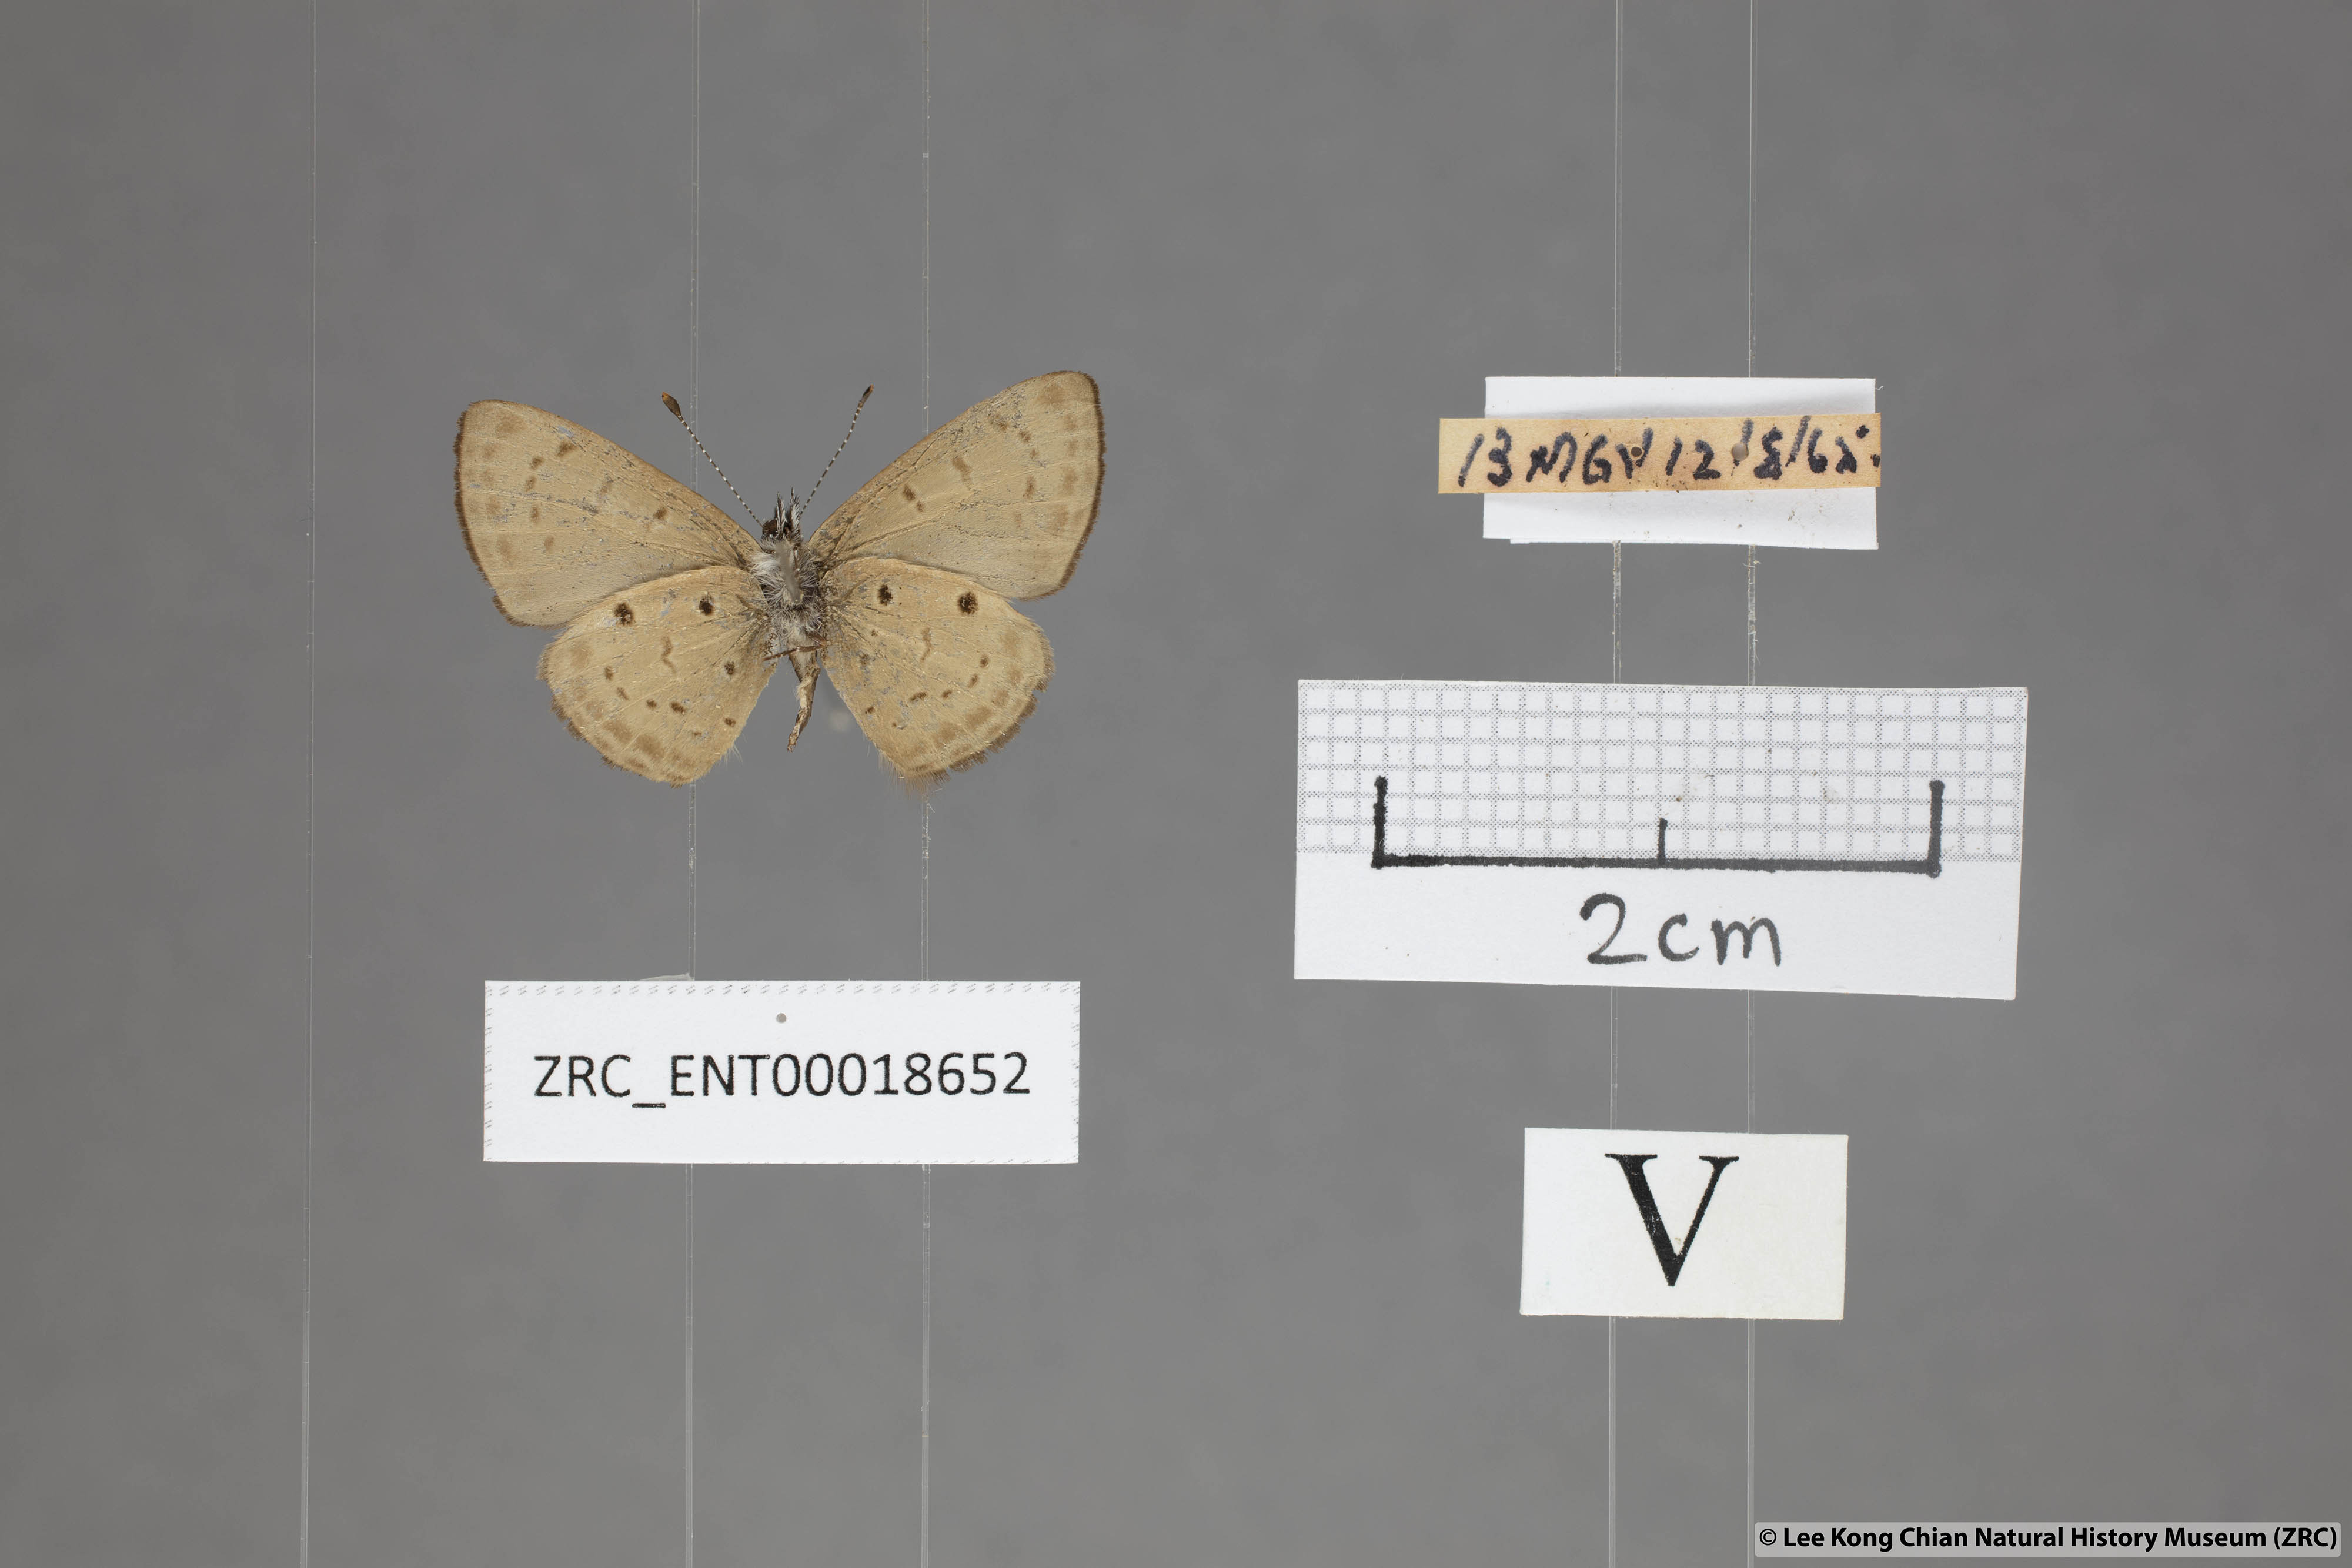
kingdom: Animalia
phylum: Arthropoda
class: Insecta
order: Lepidoptera
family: Lycaenidae
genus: Una
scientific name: Una usta
